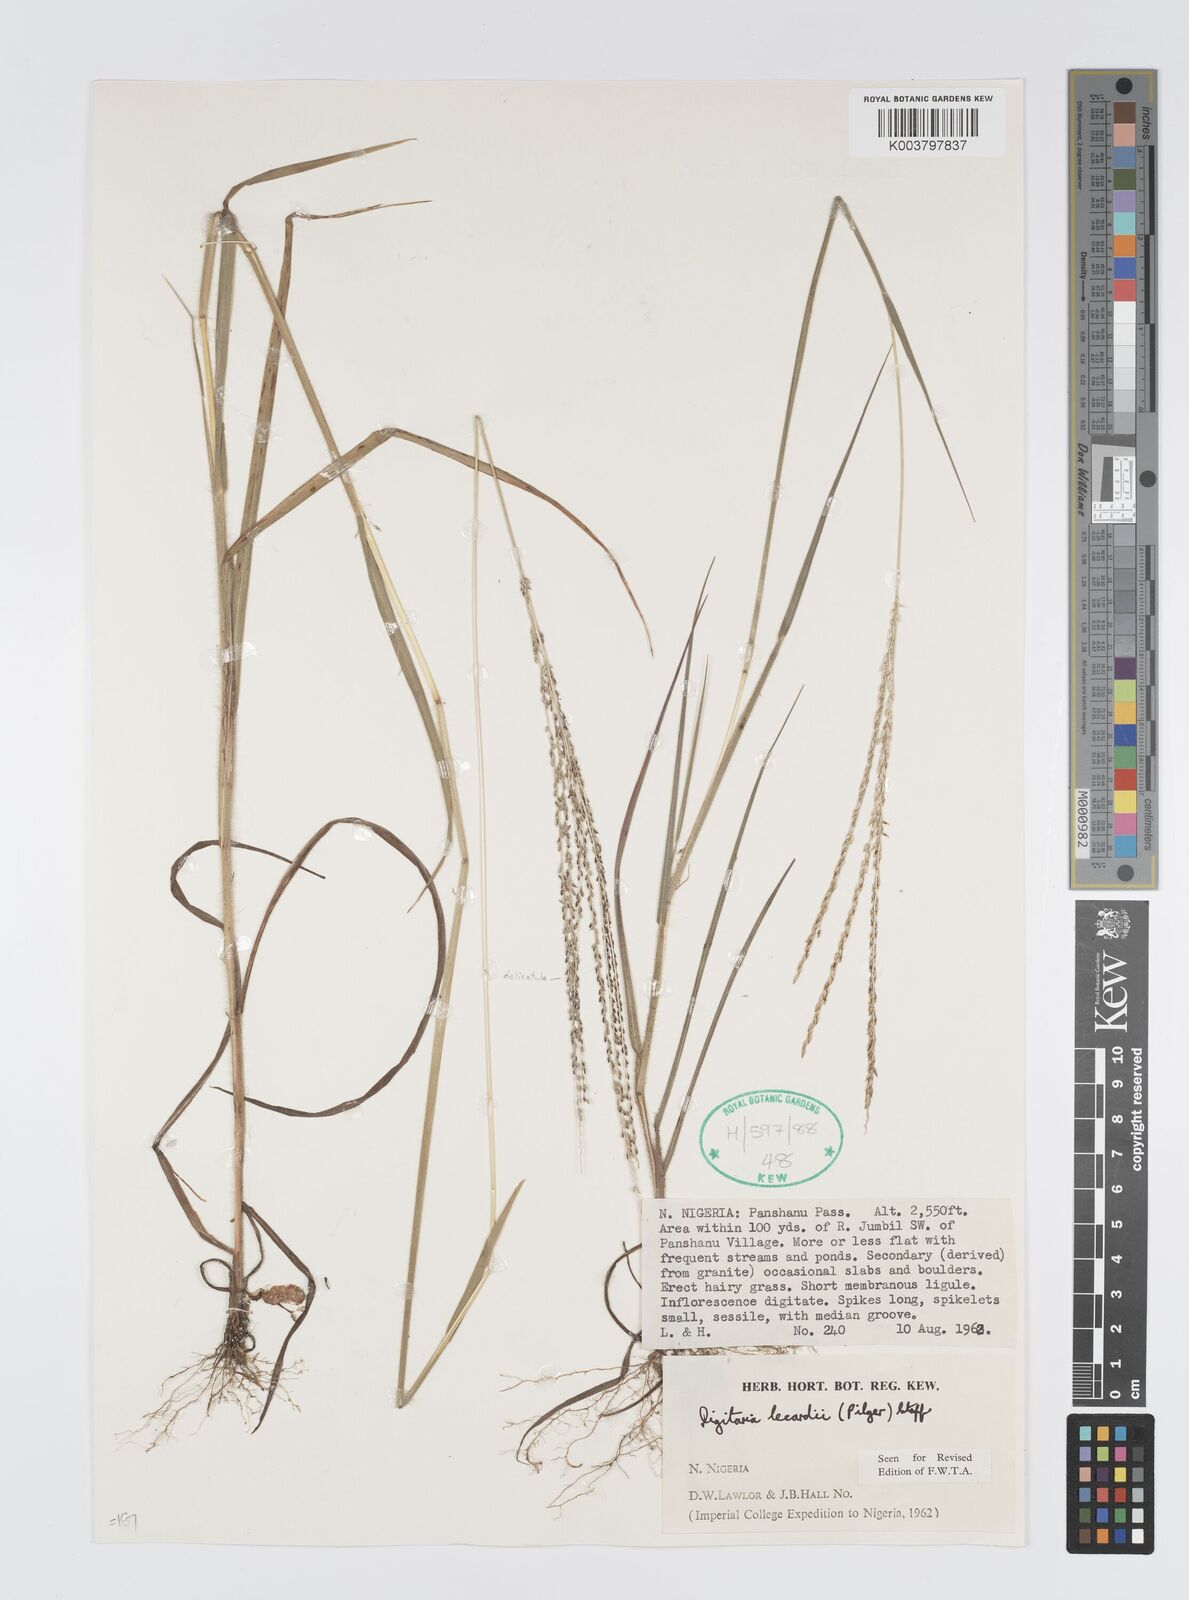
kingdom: Plantae
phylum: Tracheophyta
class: Liliopsida
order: Poales
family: Poaceae
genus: Digitaria
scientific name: Digitaria argillacea
